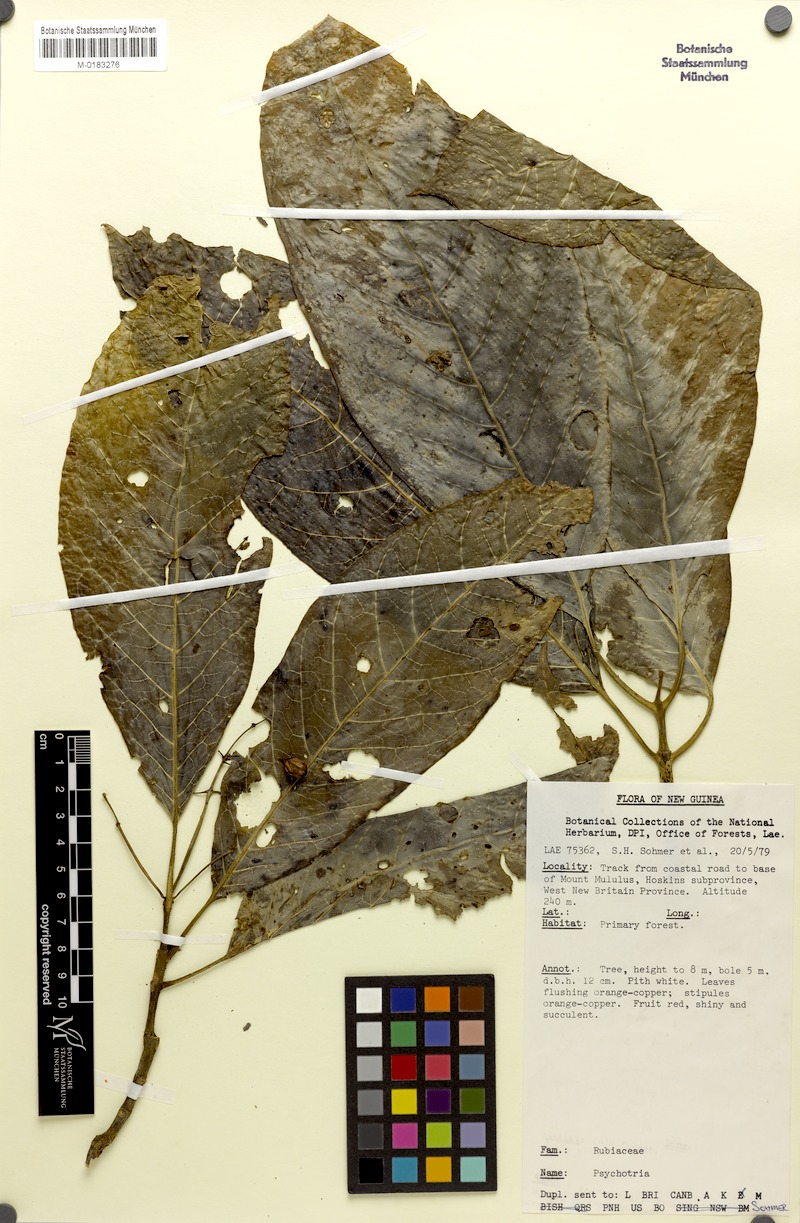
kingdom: Plantae
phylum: Tracheophyta
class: Magnoliopsida
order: Gentianales
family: Rubiaceae
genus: Eumachia
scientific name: Eumachia damasiana
